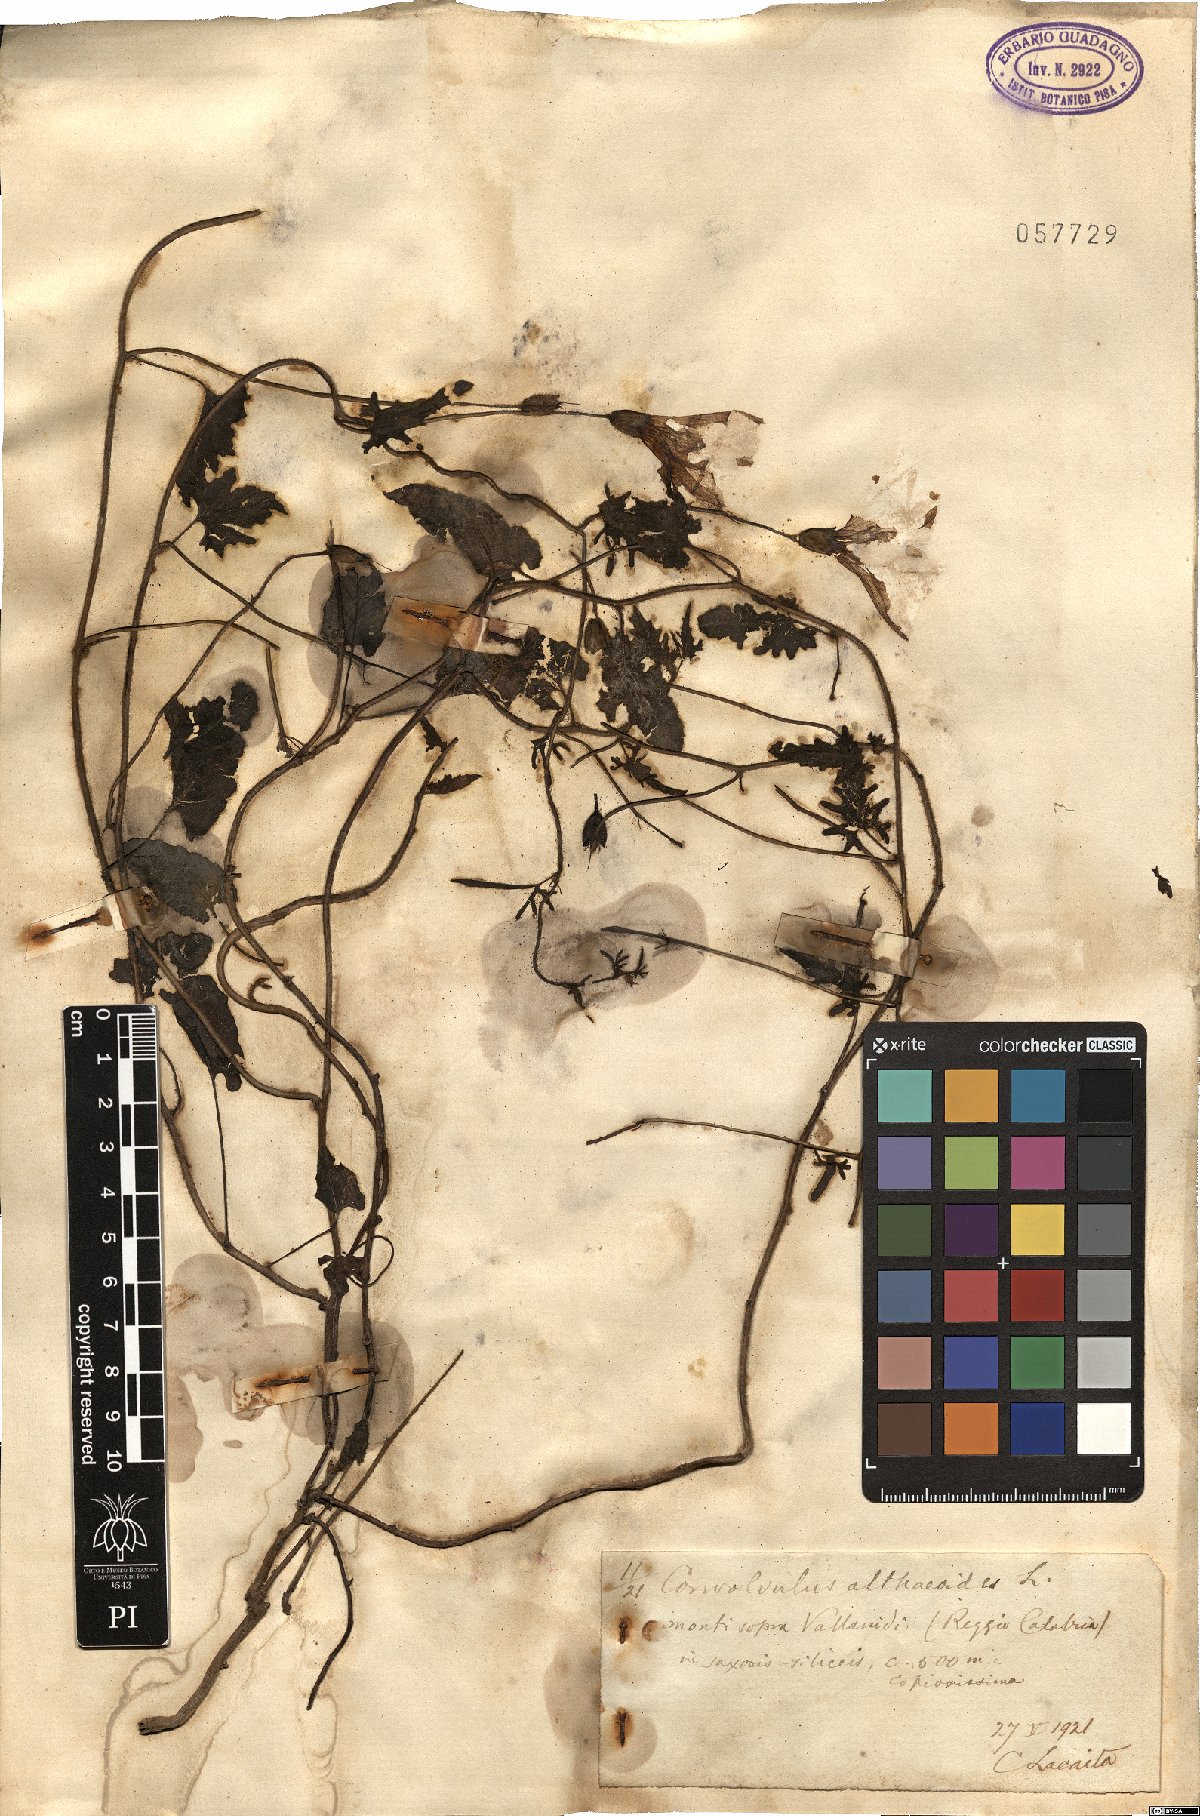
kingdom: Plantae
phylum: Tracheophyta
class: Magnoliopsida
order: Solanales
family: Convolvulaceae
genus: Convolvulus
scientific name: Convolvulus althaeoides
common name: Mallow bindweed
